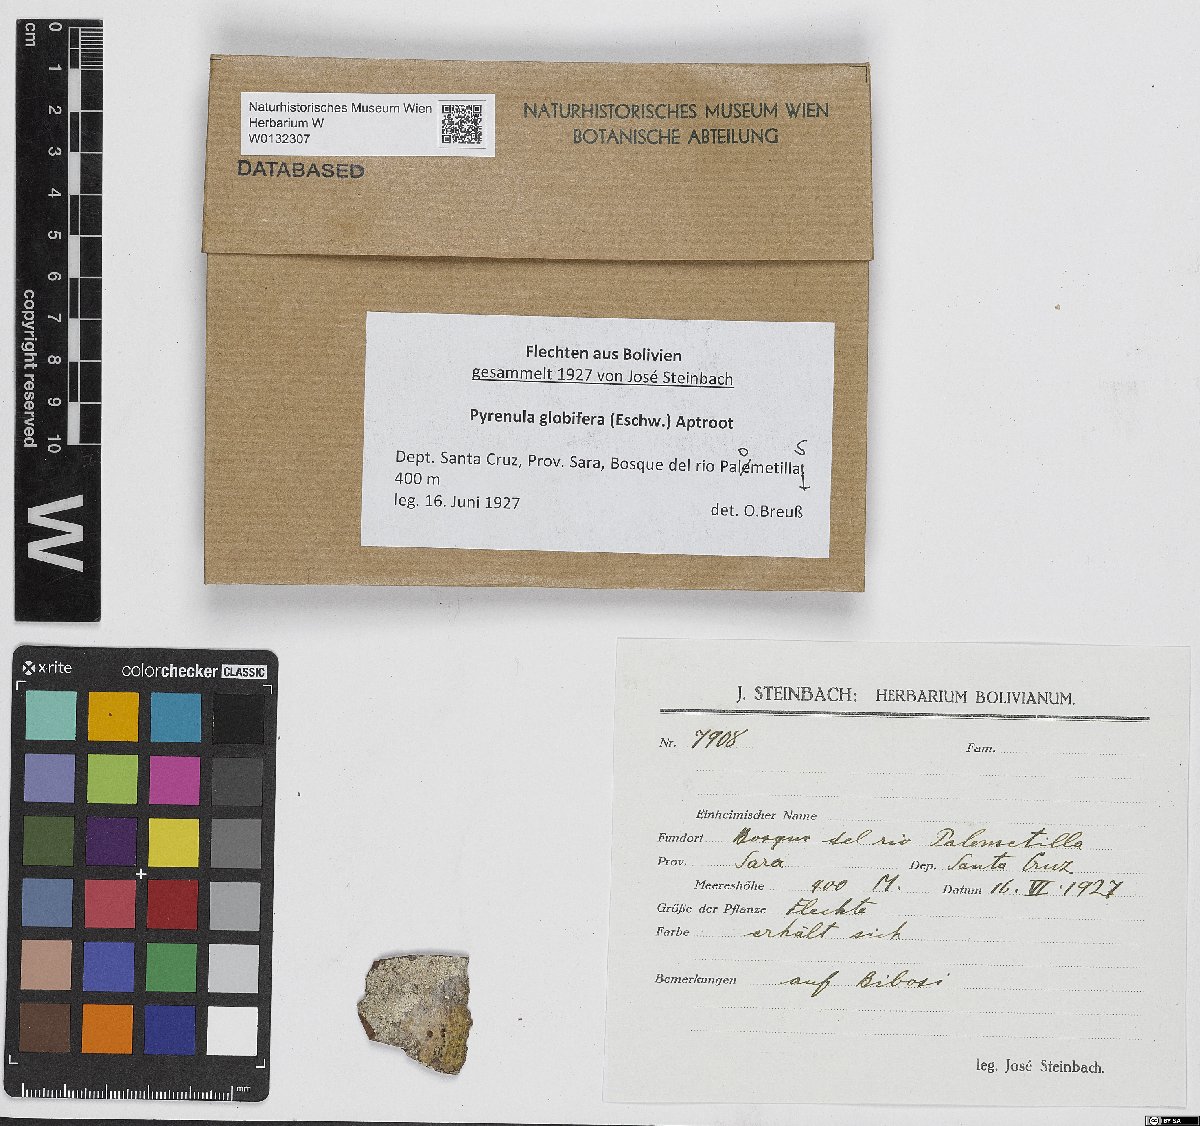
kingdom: Fungi
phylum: Ascomycota
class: Eurotiomycetes
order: Pyrenulales
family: Pyrenulaceae
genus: Pyrenula
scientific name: Pyrenula globifera
